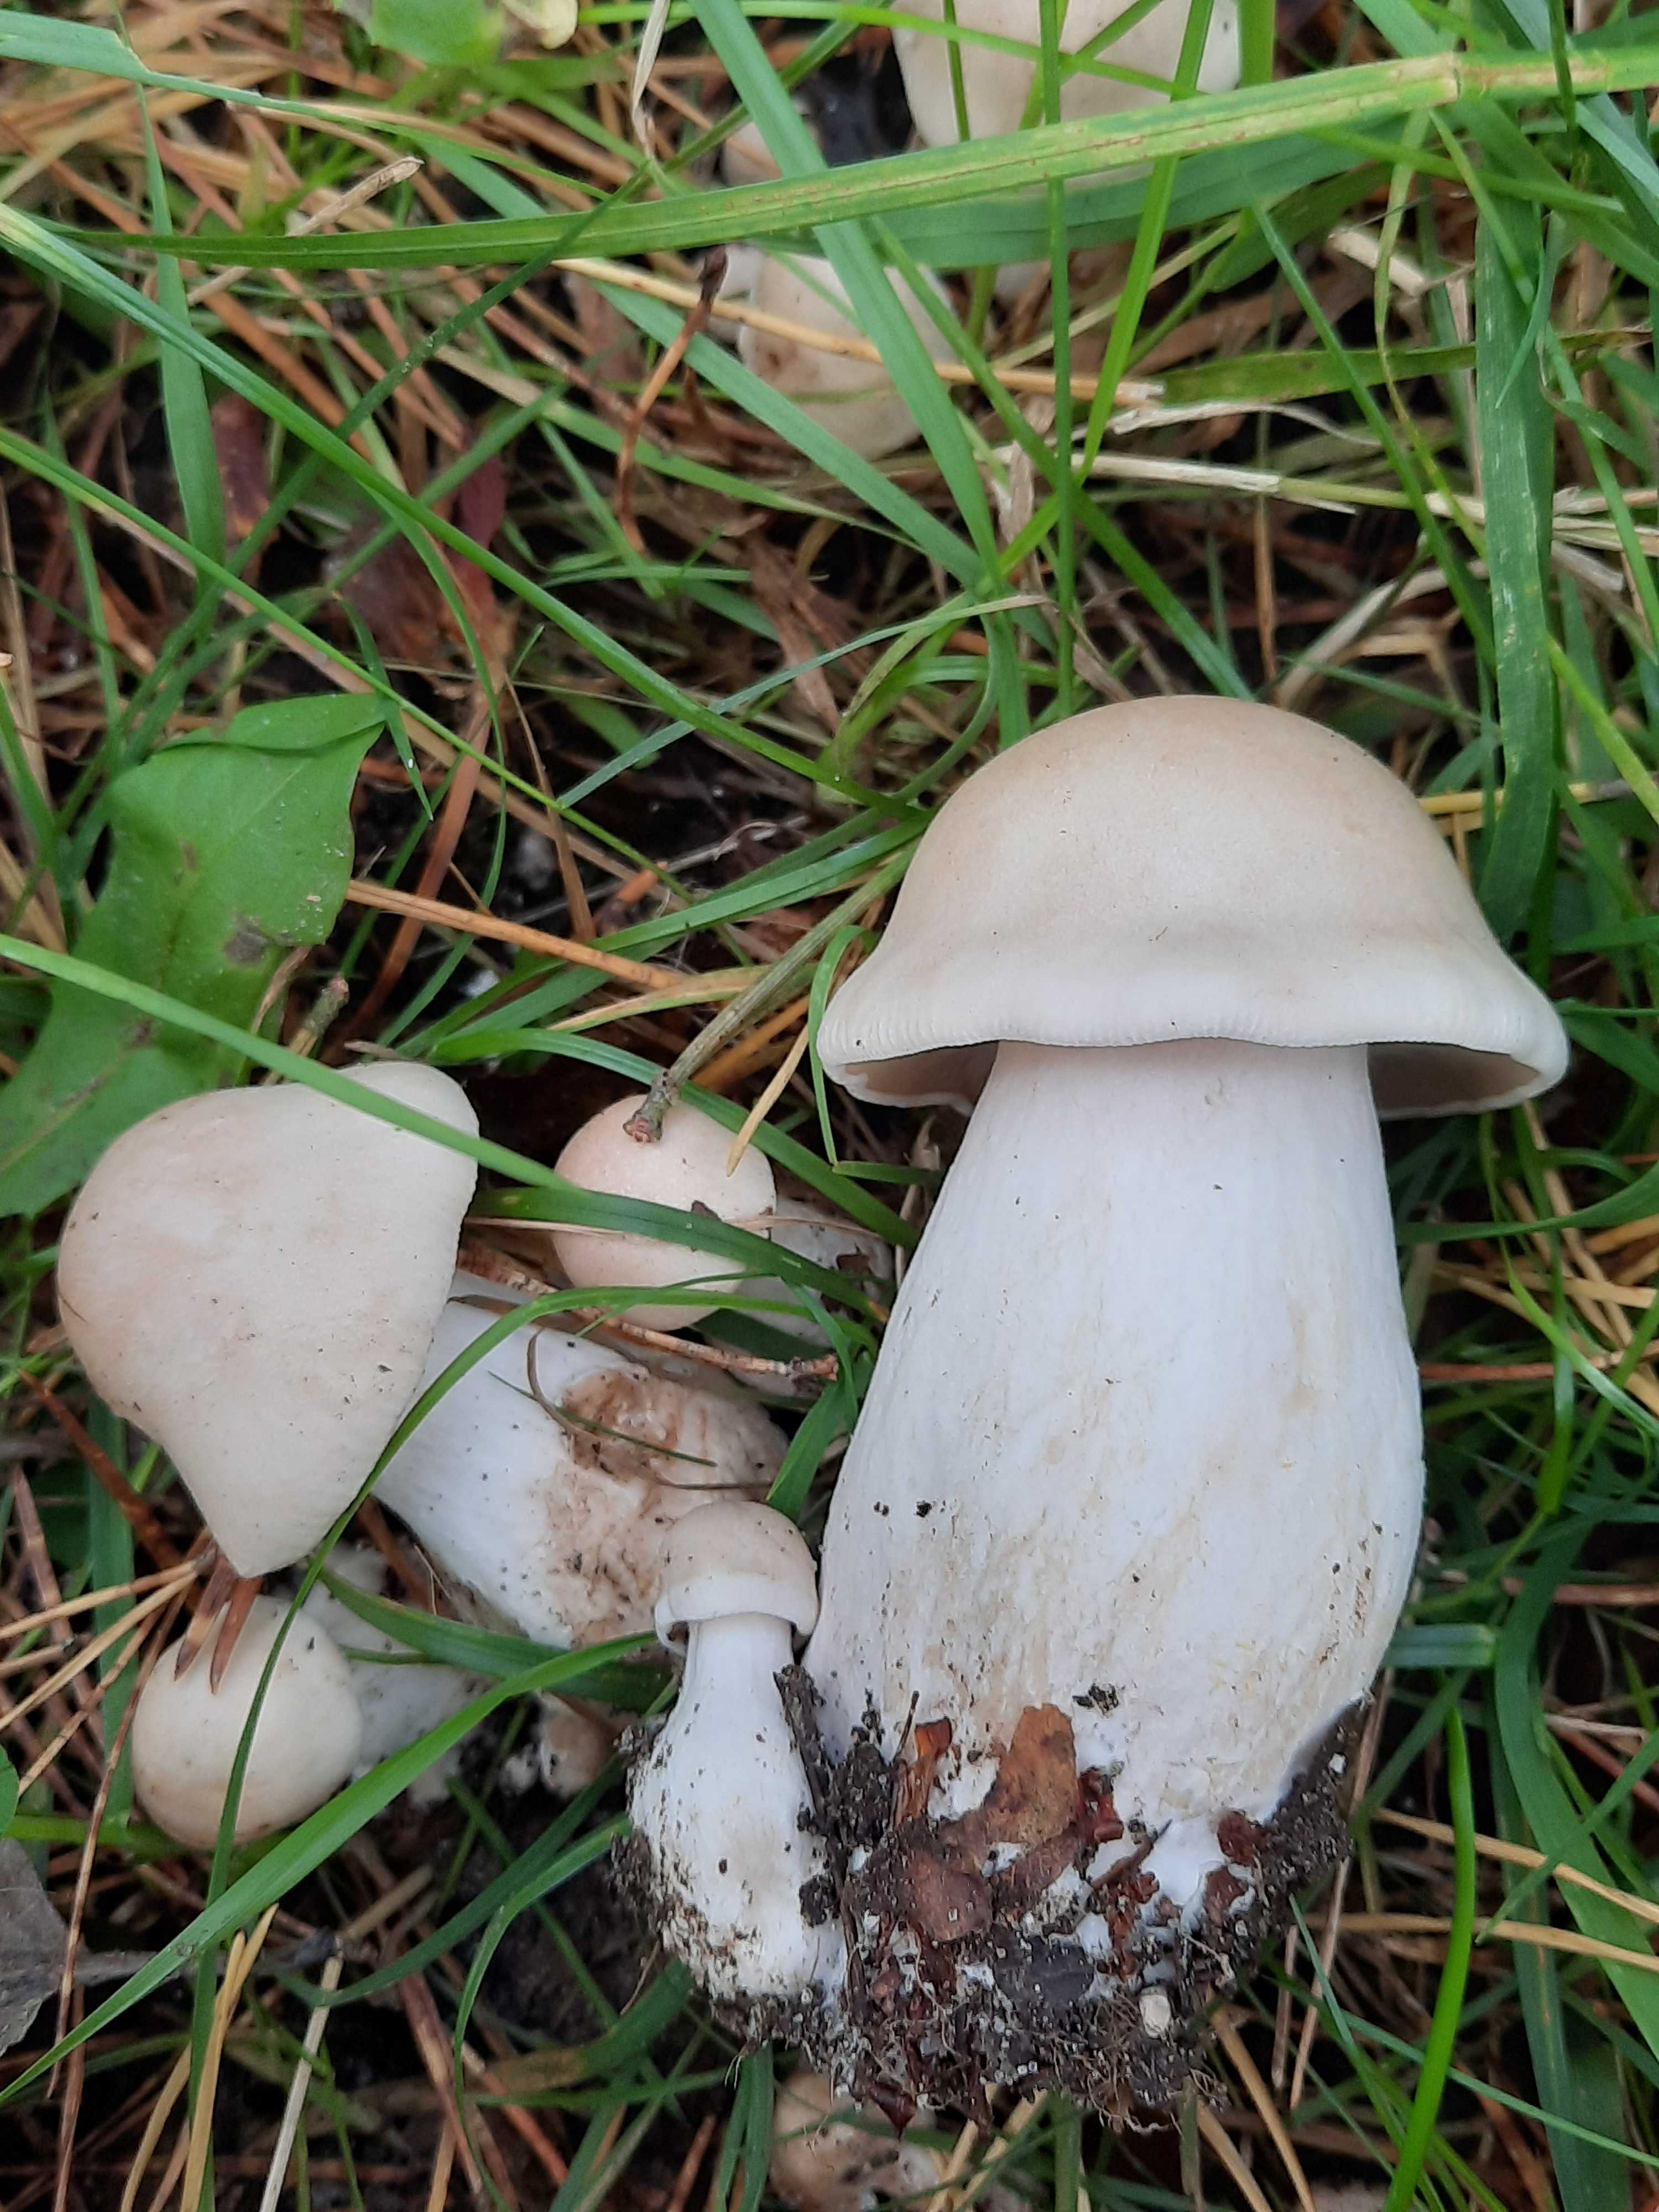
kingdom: Fungi
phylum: Basidiomycota
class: Agaricomycetes
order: Agaricales
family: Tricholomataceae
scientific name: Tricholomataceae
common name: ridderhatfamilien
